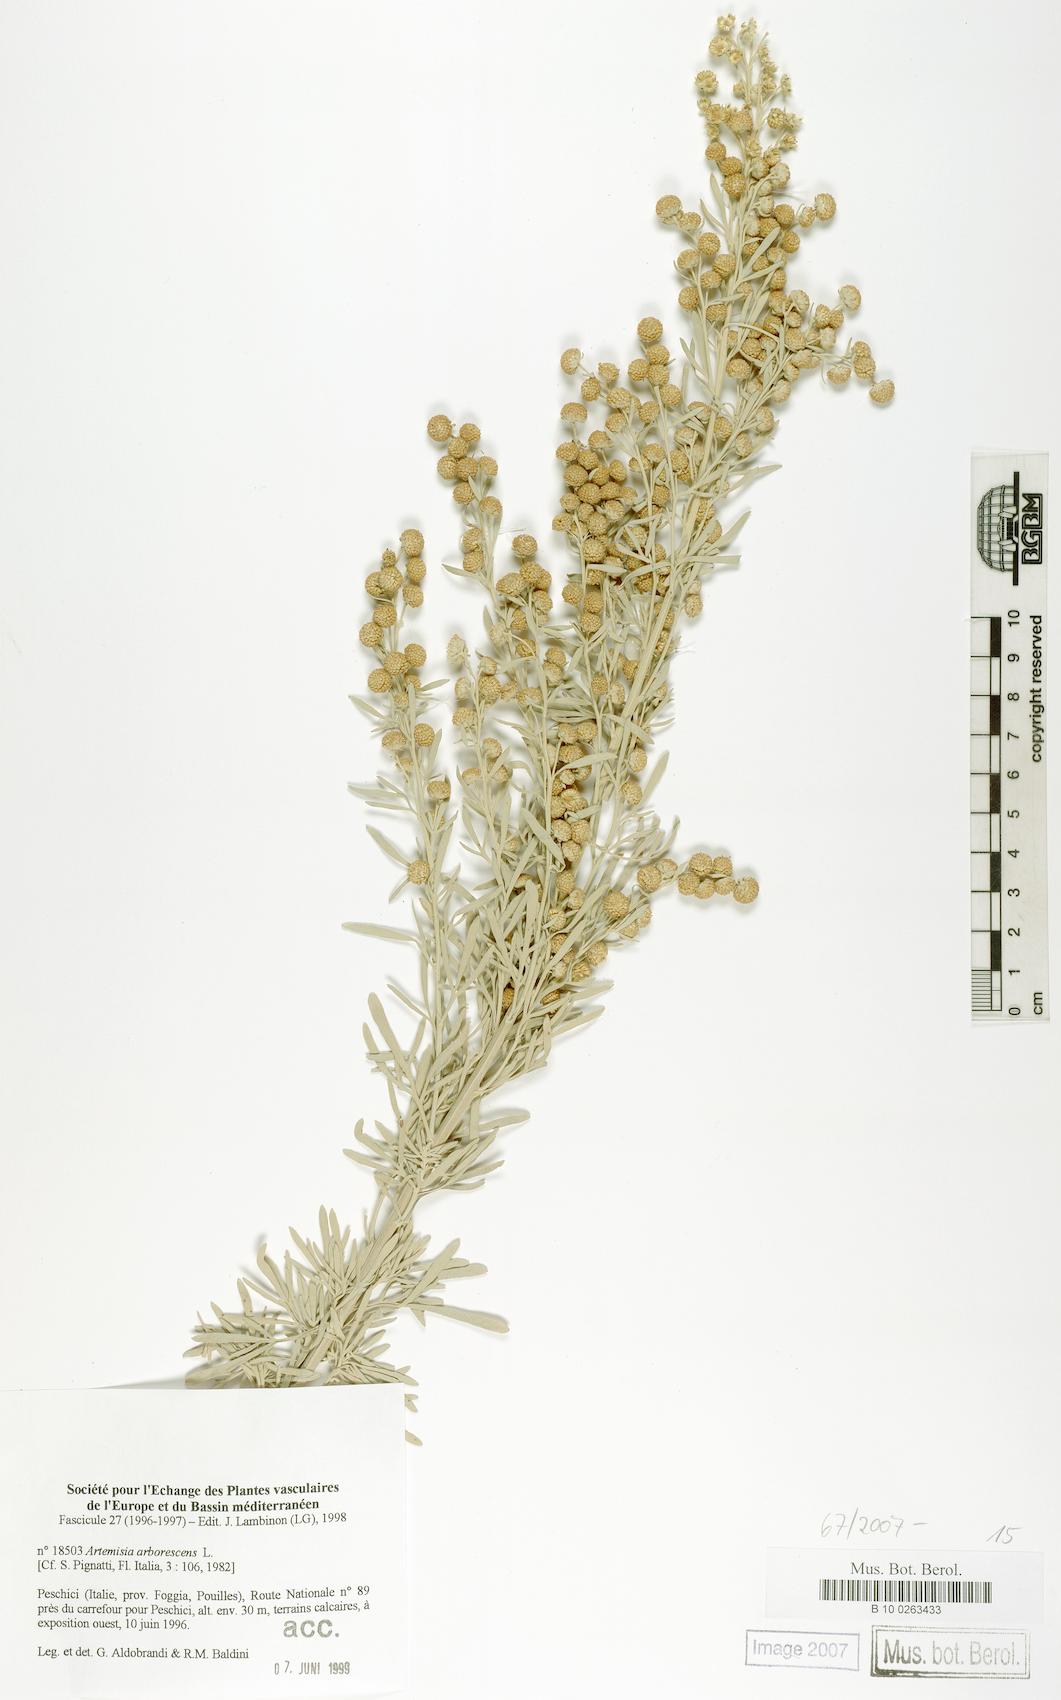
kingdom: Plantae
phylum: Tracheophyta
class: Magnoliopsida
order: Asterales
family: Asteraceae
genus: Artemisia
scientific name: Artemisia arborescens
